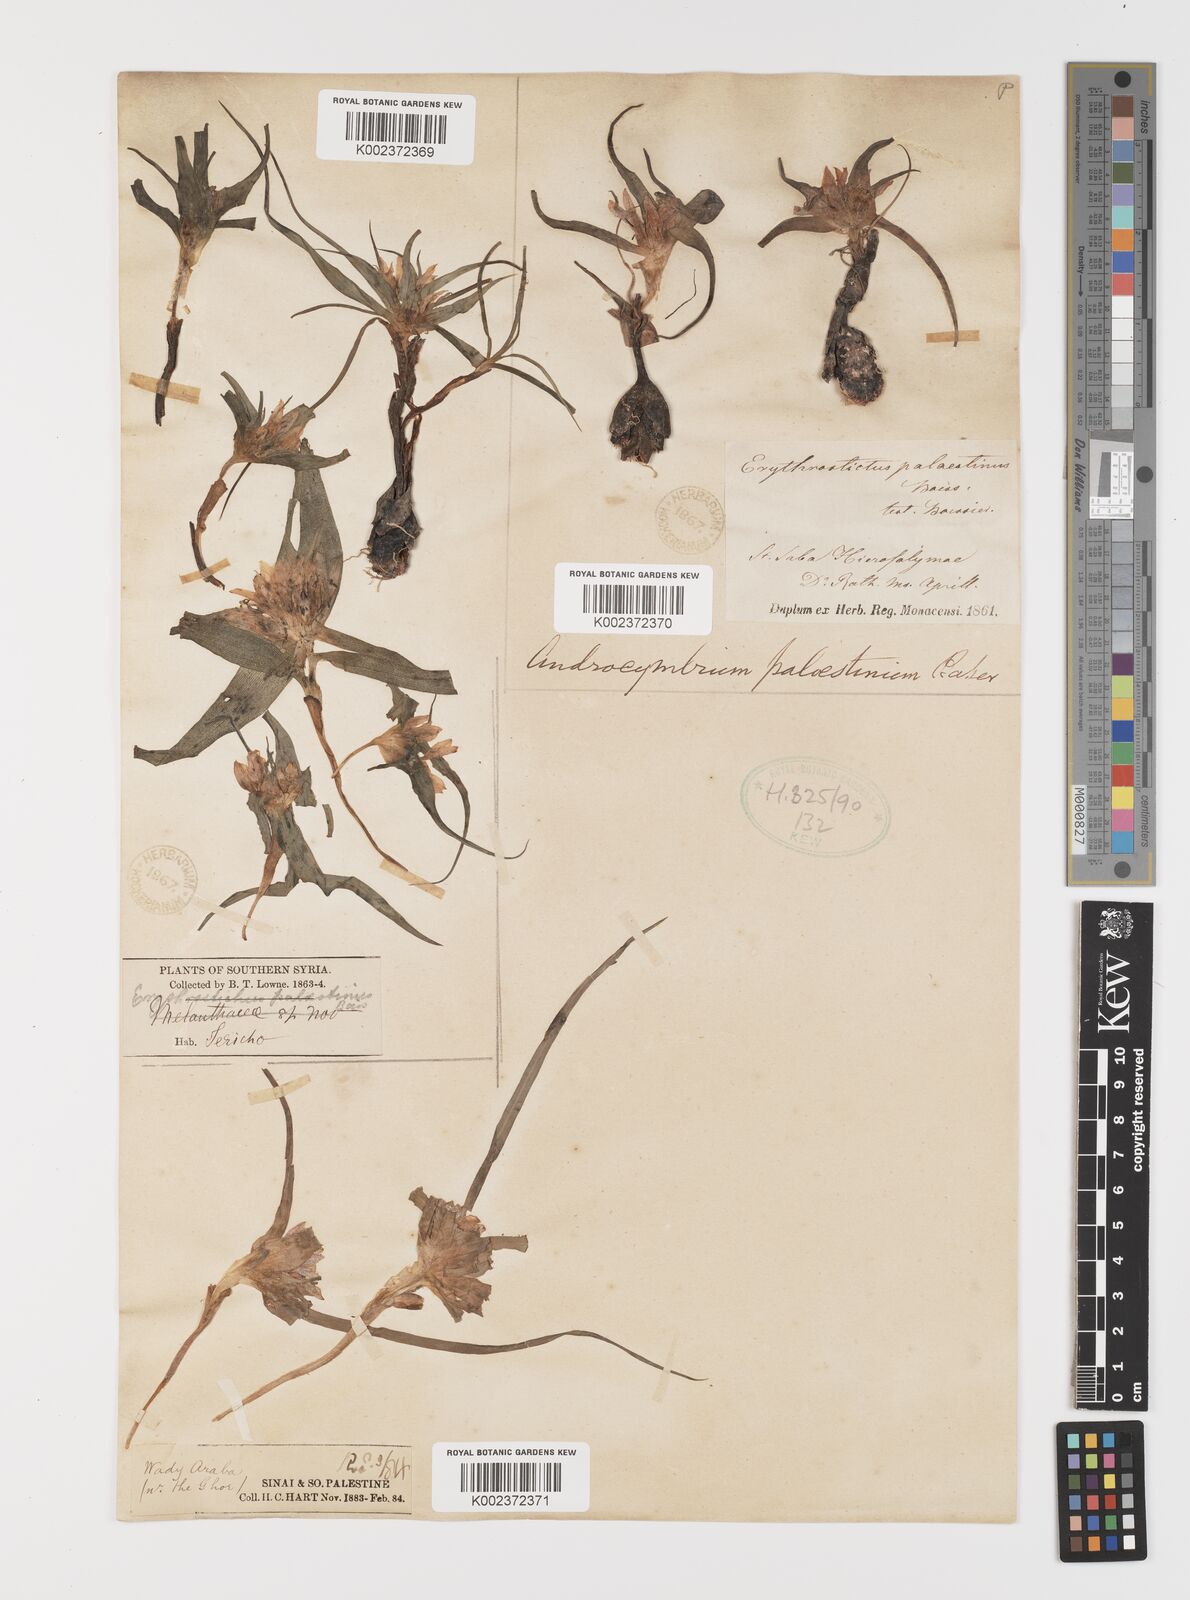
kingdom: Plantae
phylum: Tracheophyta
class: Liliopsida
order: Liliales
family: Colchicaceae
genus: Colchicum
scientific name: Colchicum palaestinum
